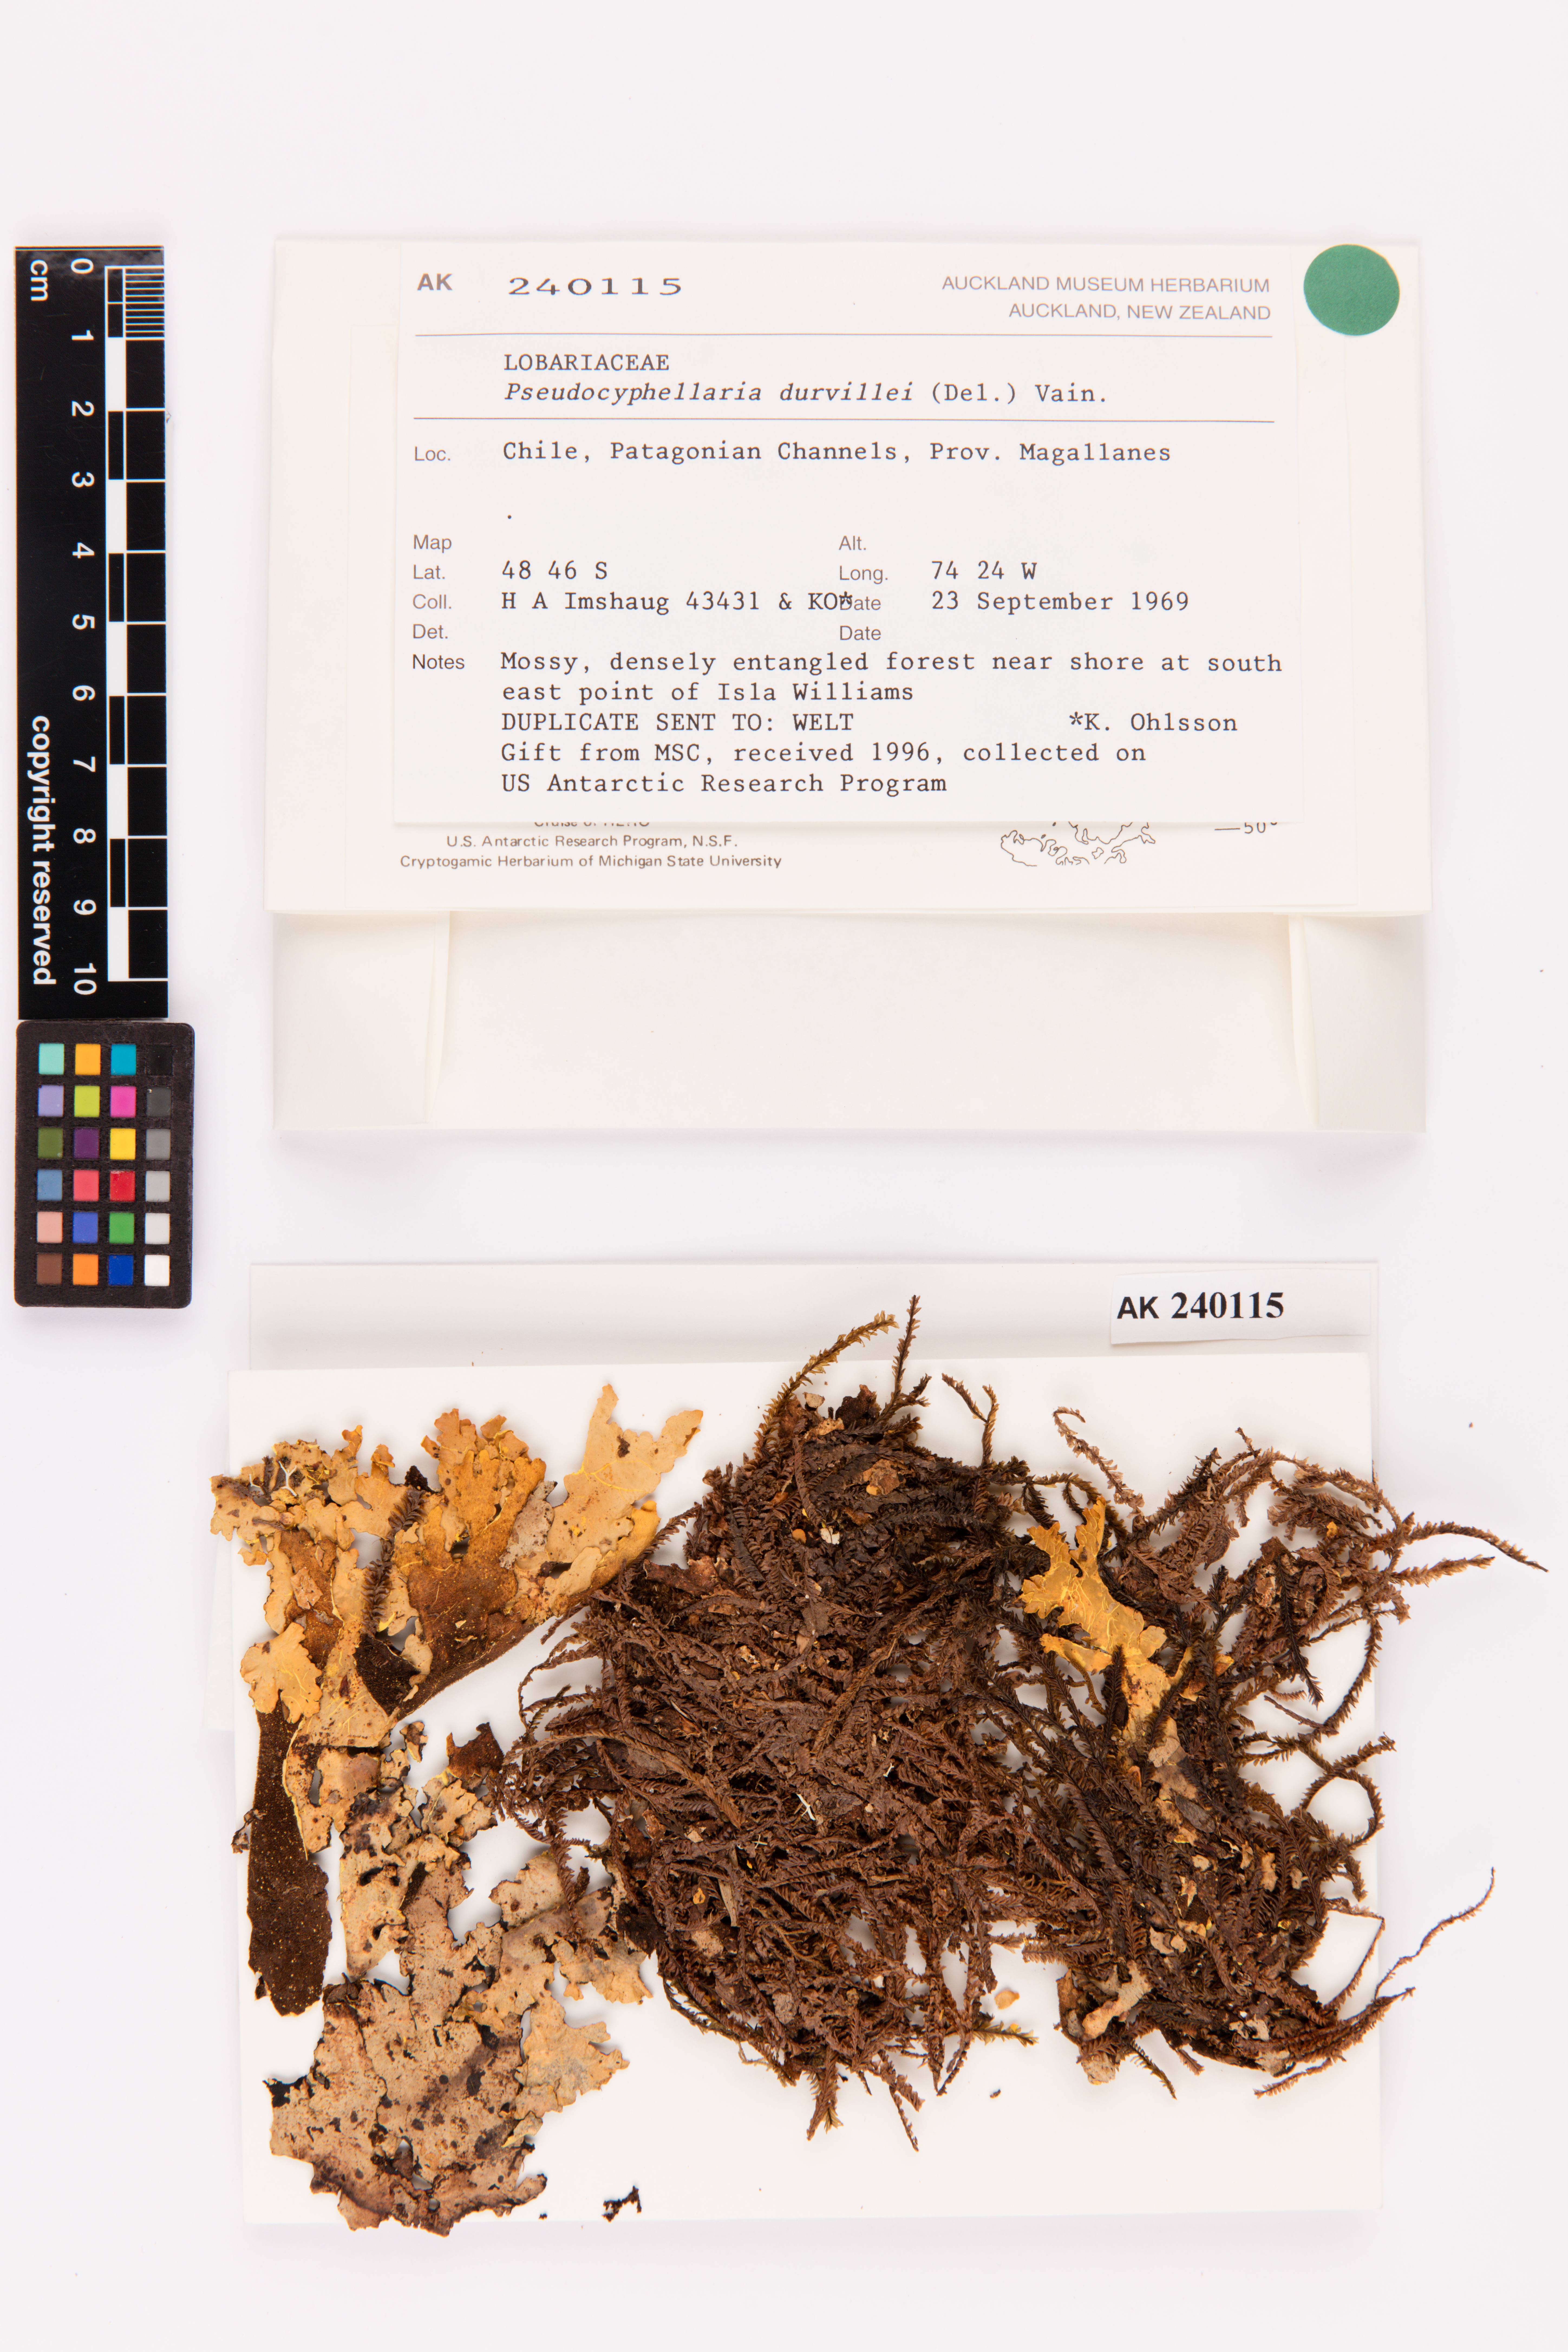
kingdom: Fungi
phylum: Ascomycota
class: Lecanoromycetes
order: Peltigerales
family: Lobariaceae
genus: Yarrumia
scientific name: Yarrumia coronata
